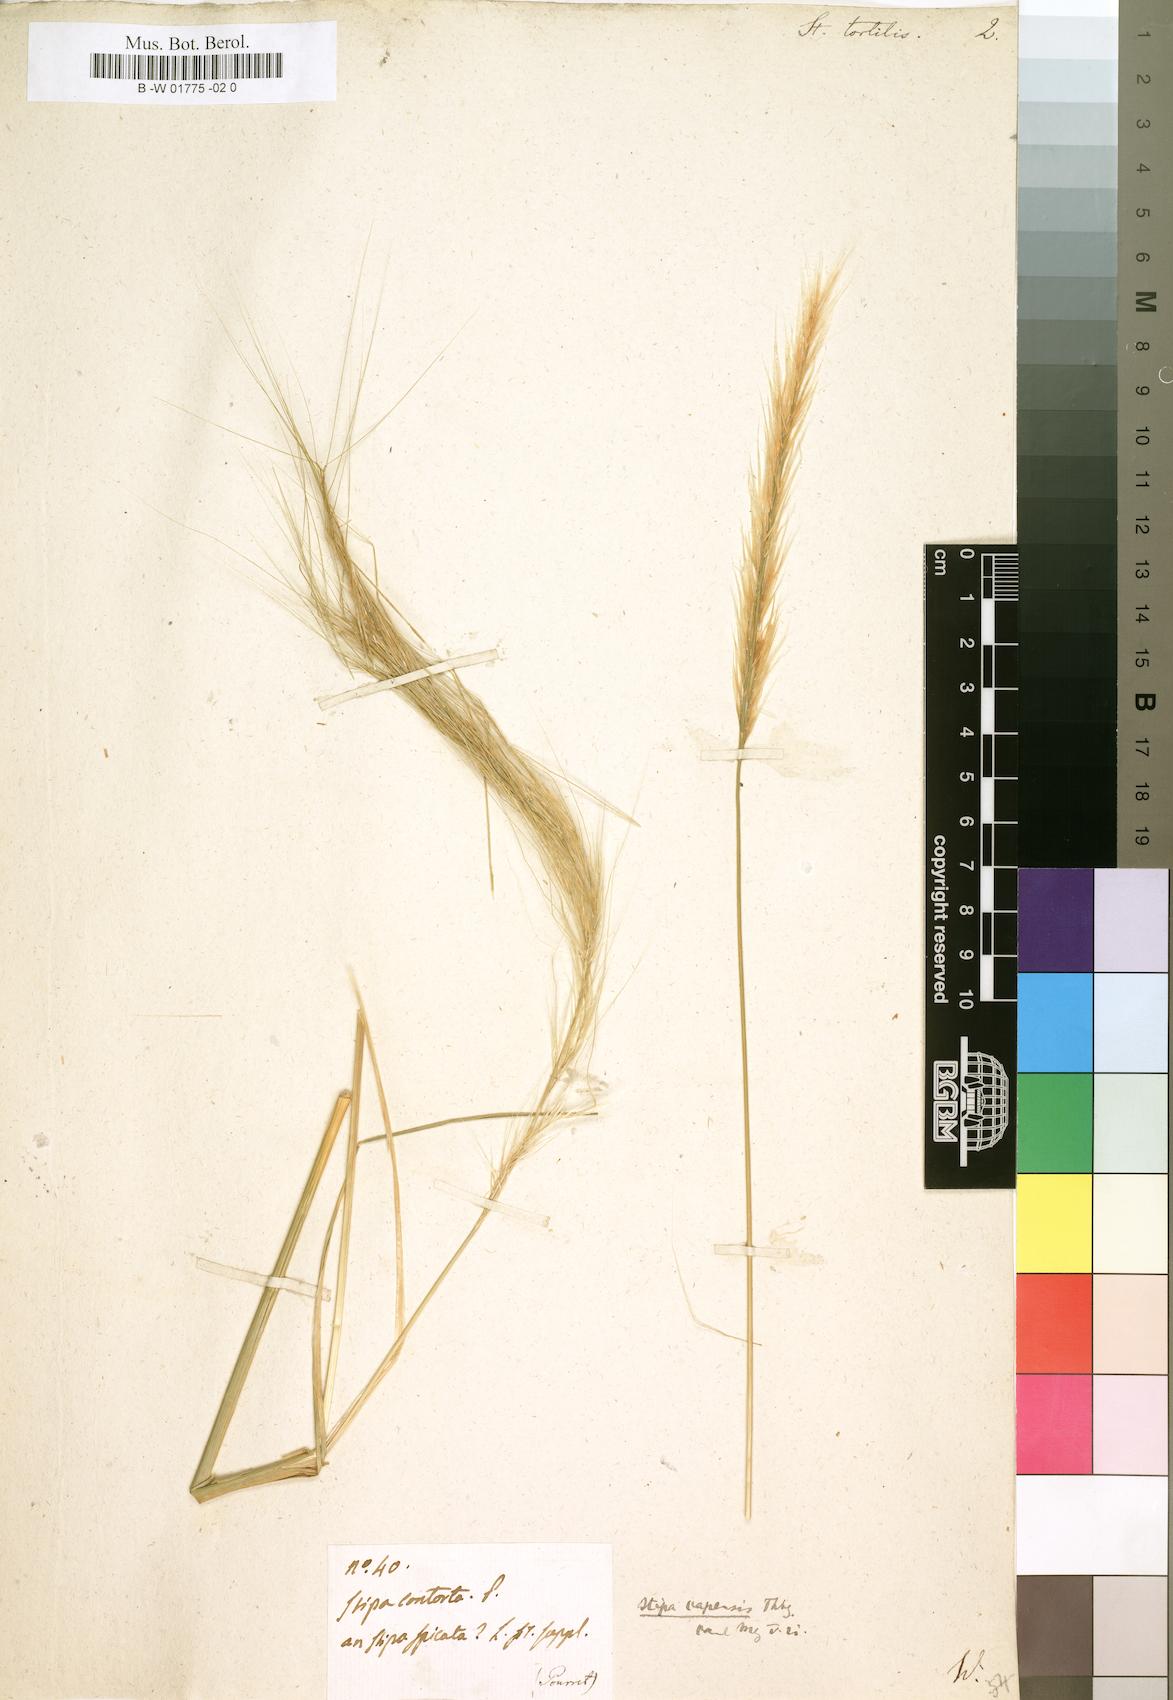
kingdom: Plantae
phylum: Tracheophyta
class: Liliopsida
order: Poales
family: Poaceae
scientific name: Poaceae
